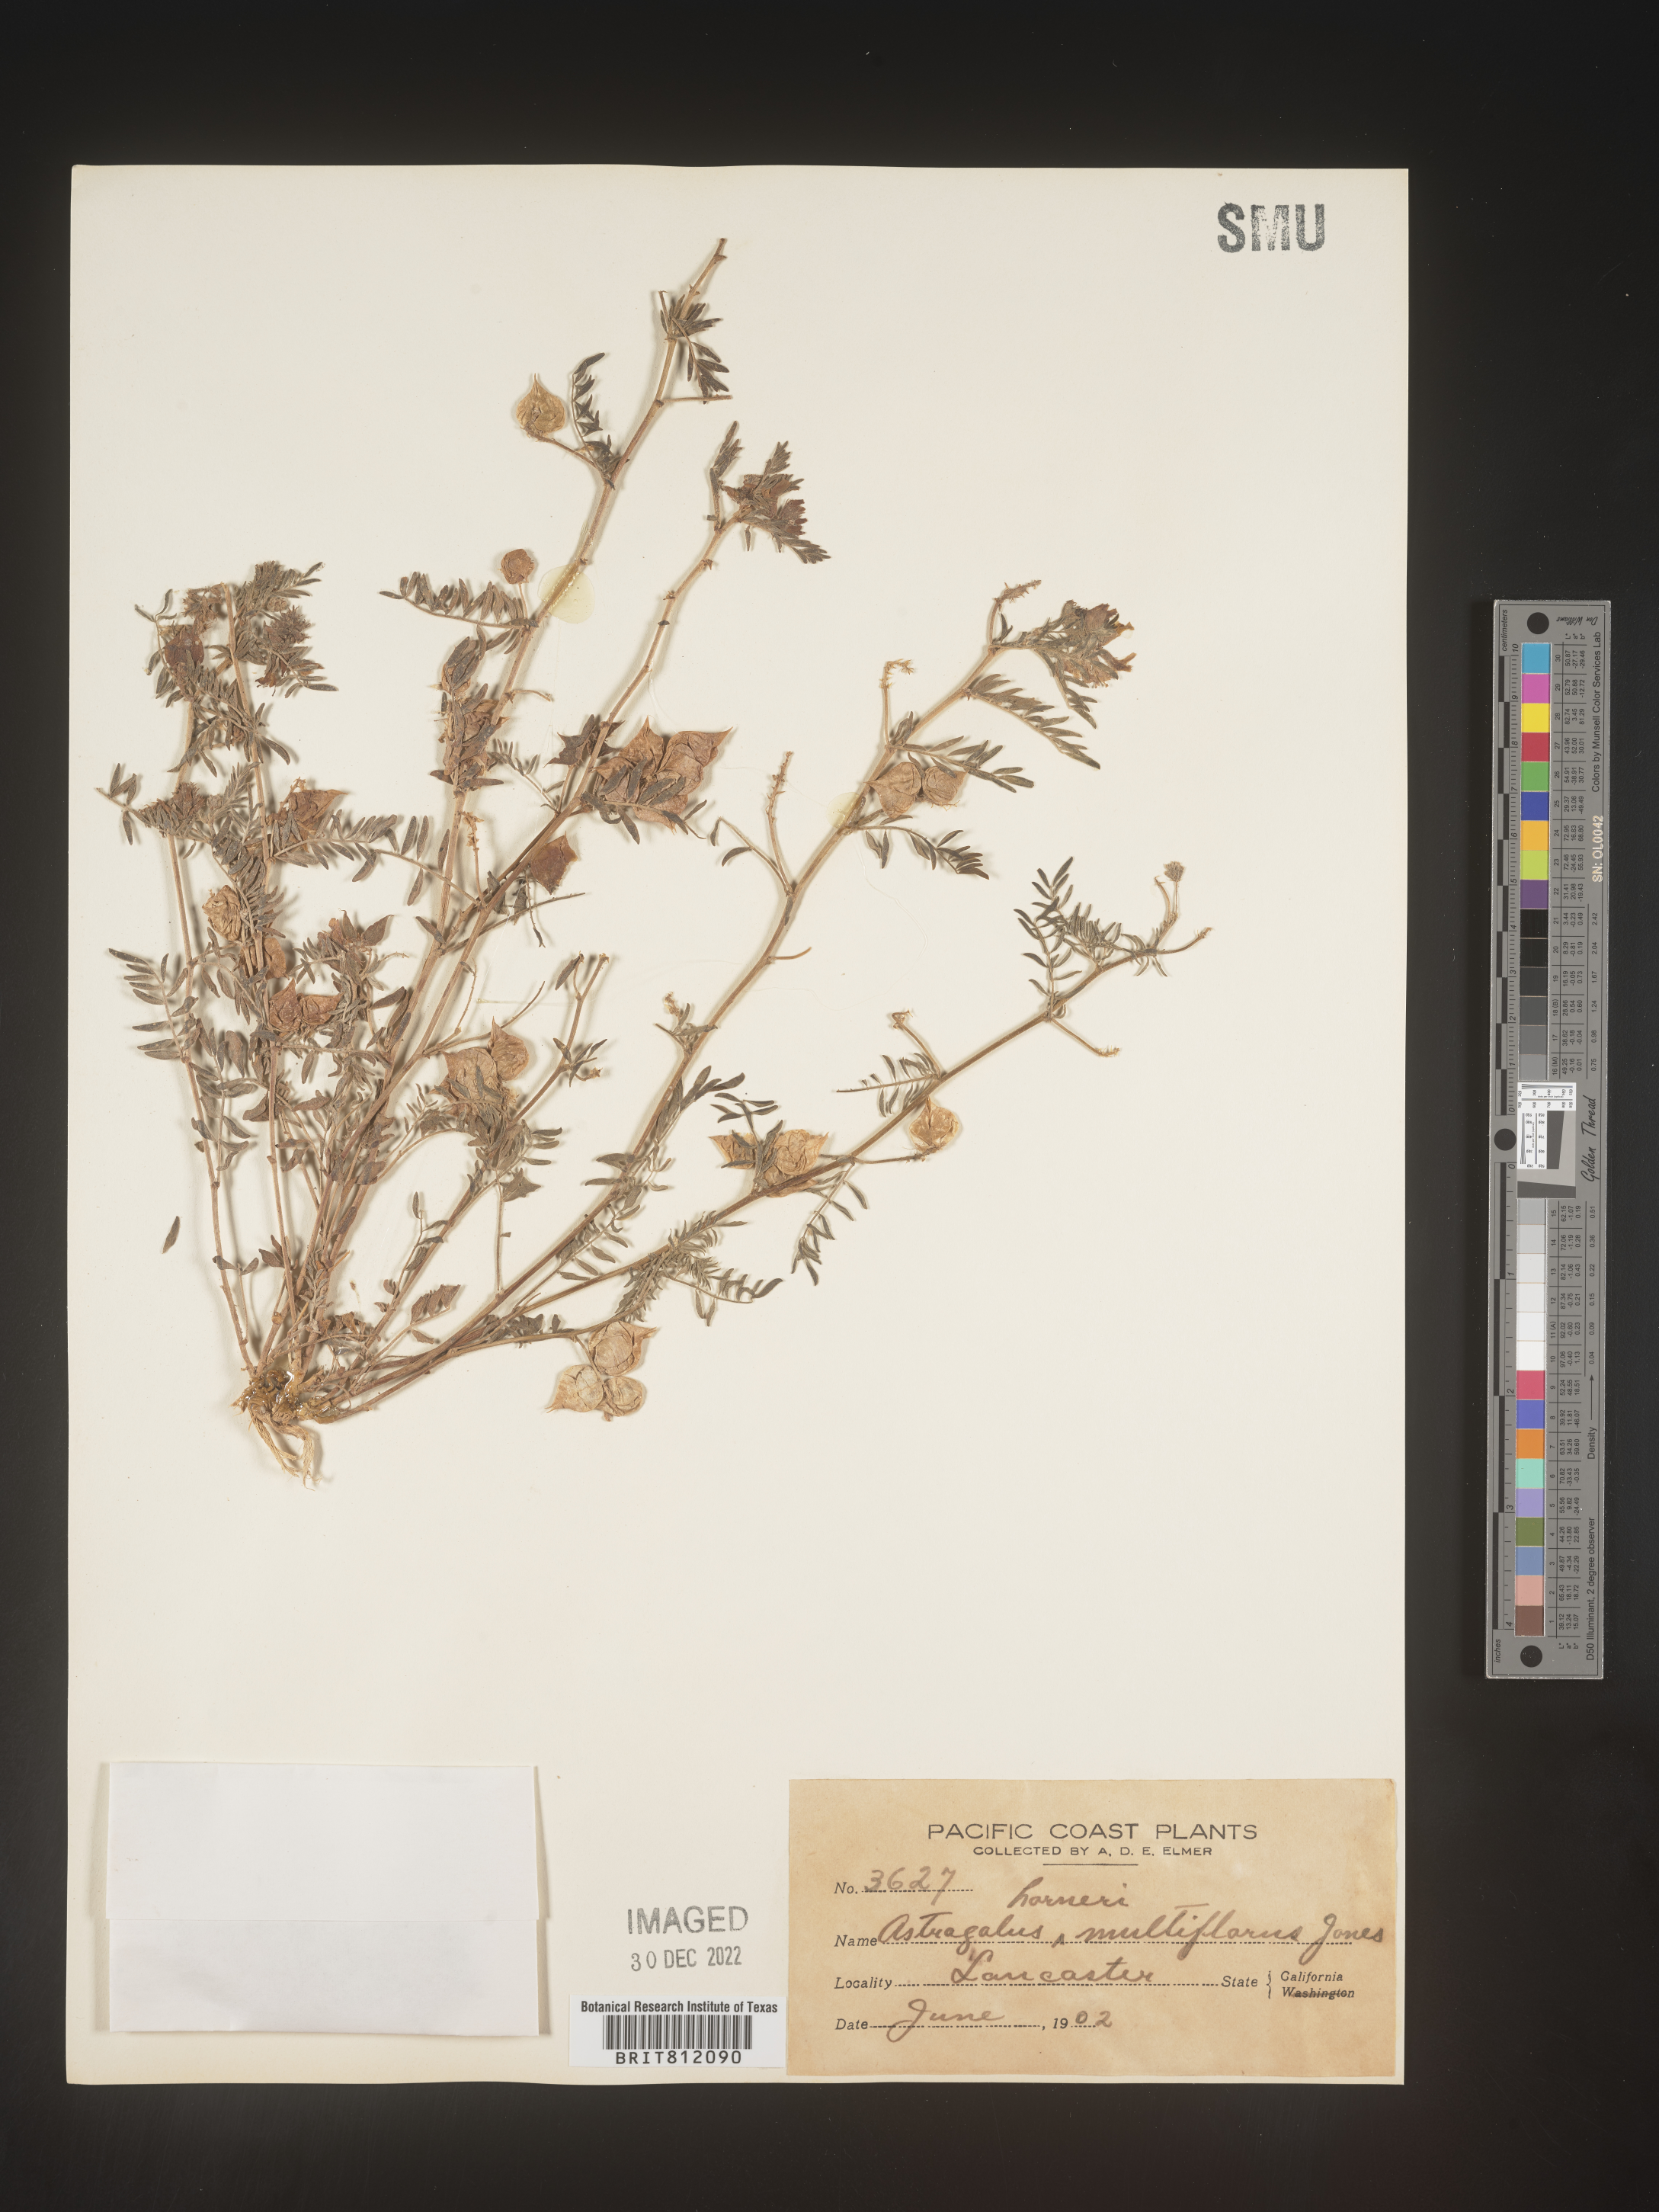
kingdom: Plantae
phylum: Tracheophyta
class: Magnoliopsida
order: Fabales
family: Fabaceae
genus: Astragalus
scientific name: Astragalus
